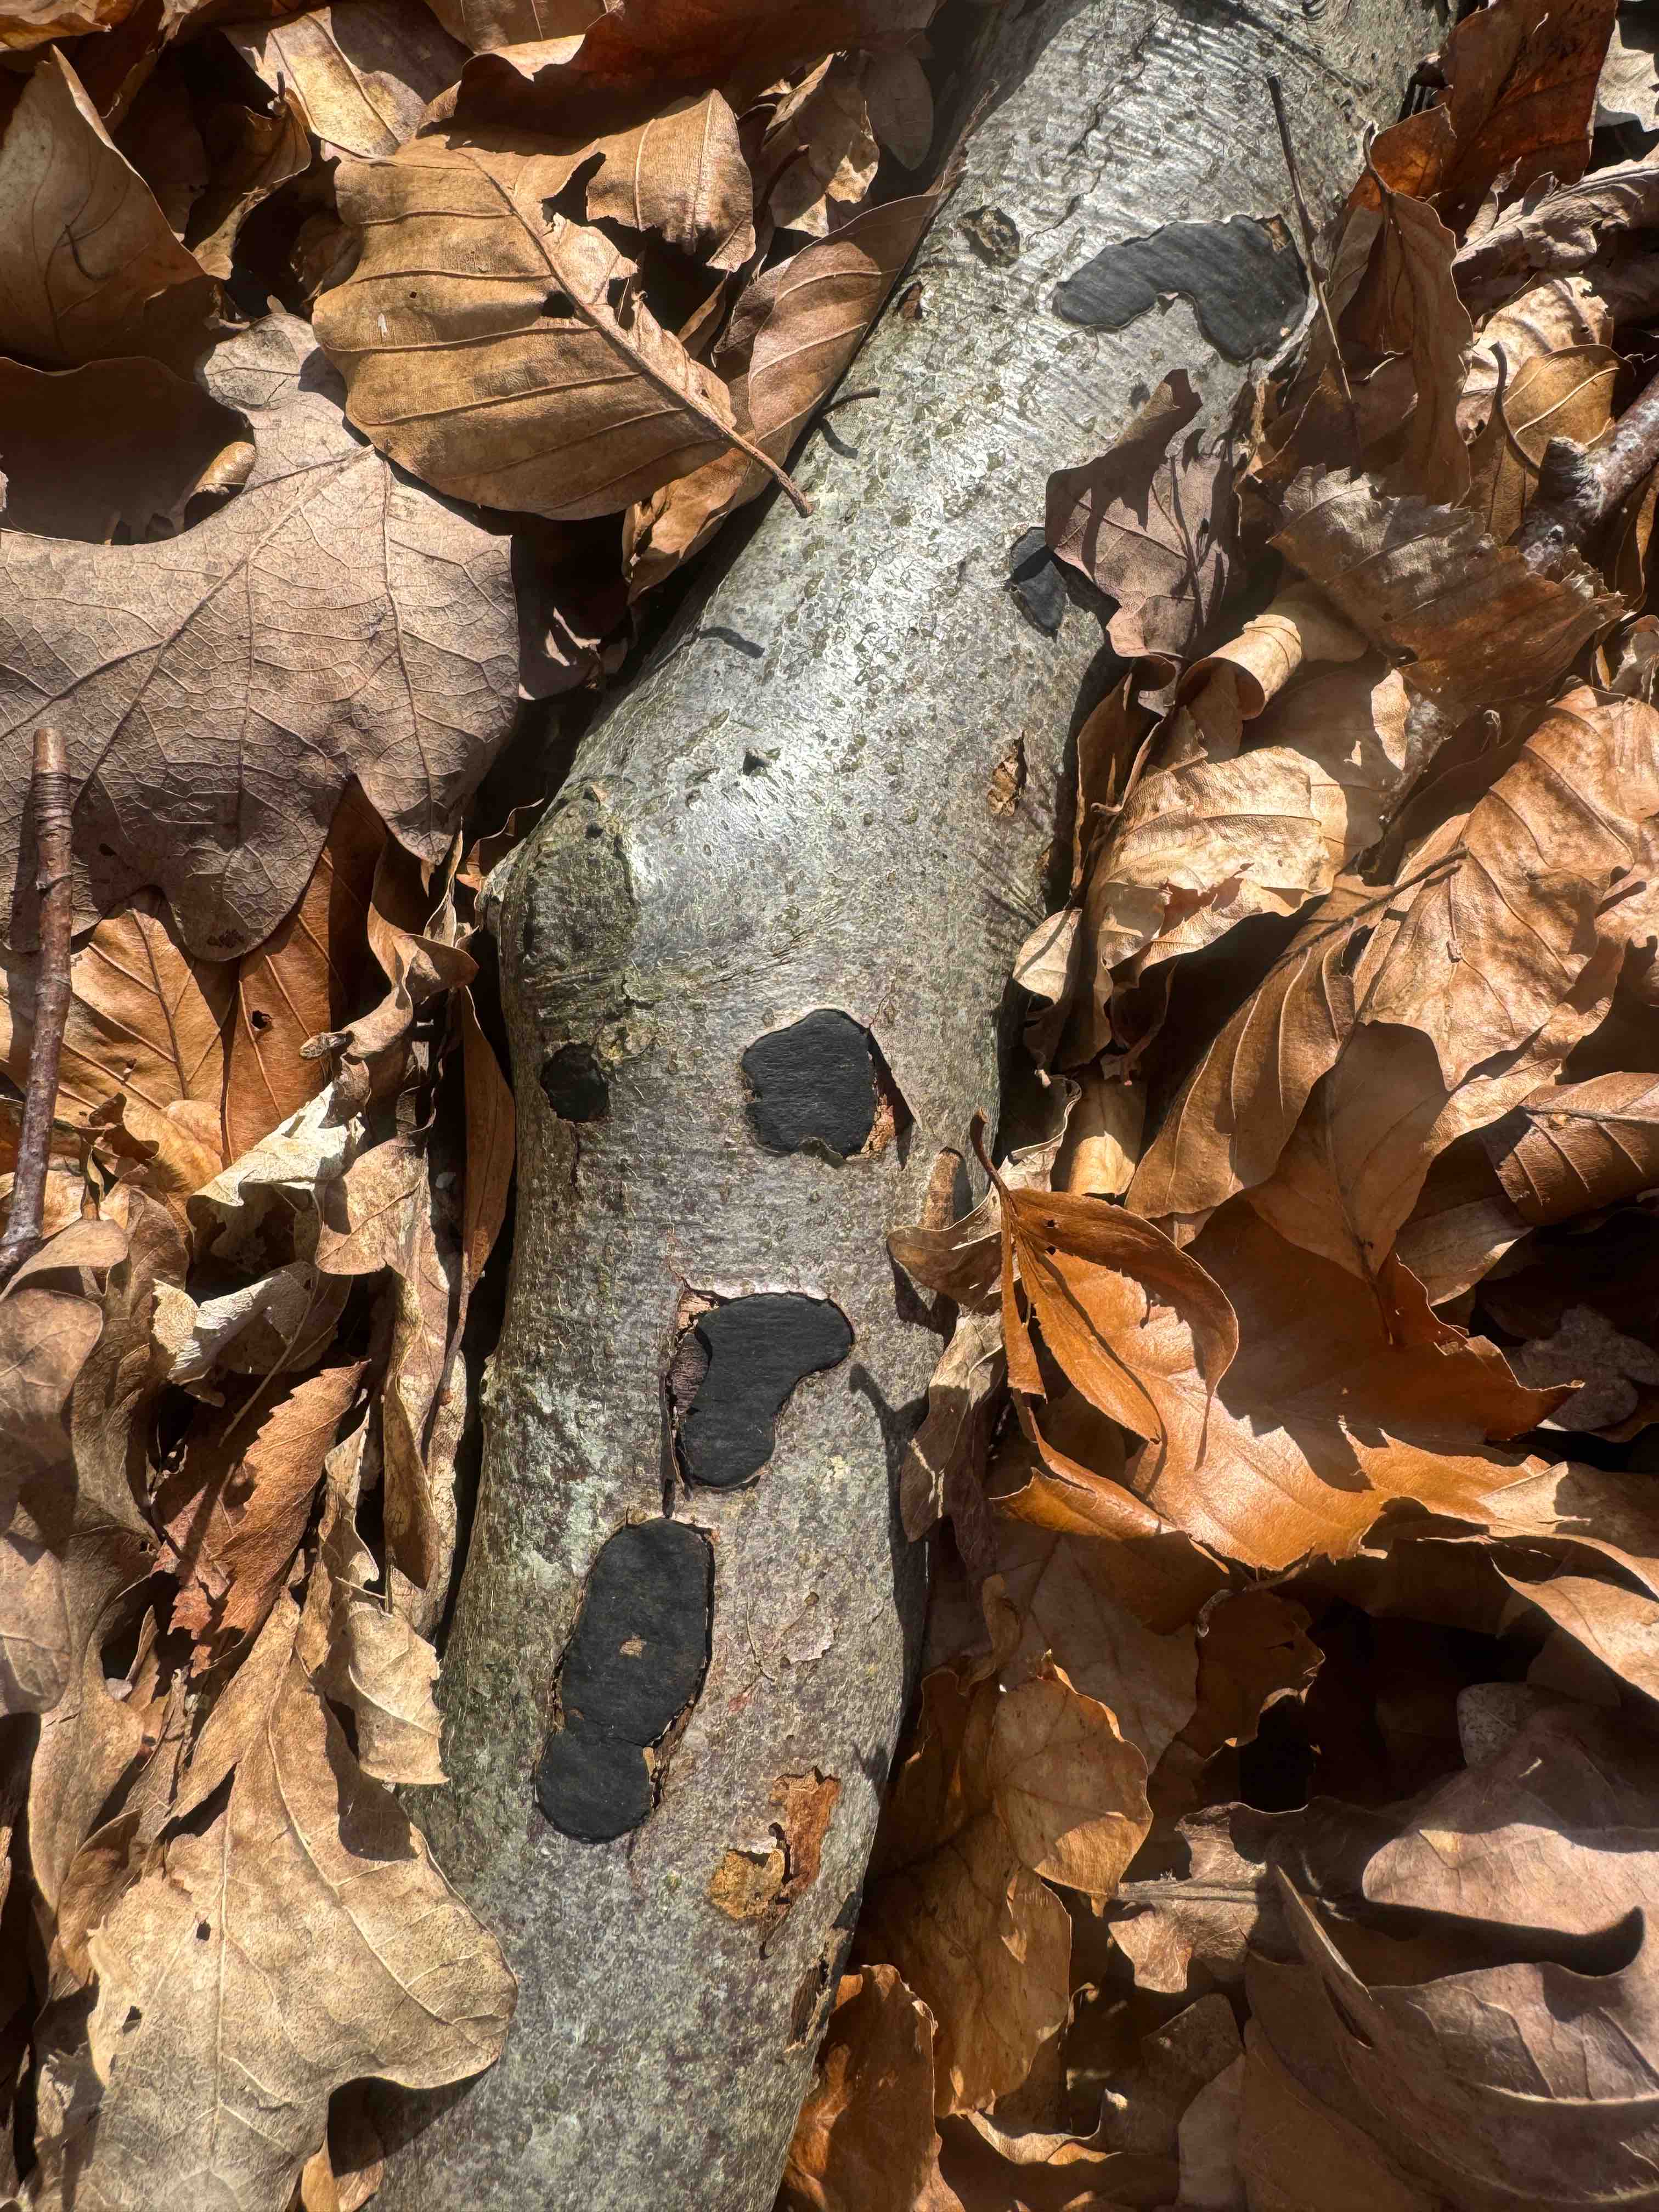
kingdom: Fungi
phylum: Ascomycota
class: Sordariomycetes
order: Xylariales
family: Graphostromataceae
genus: Biscogniauxia
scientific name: Biscogniauxia nummularia
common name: bøge-kulskive
